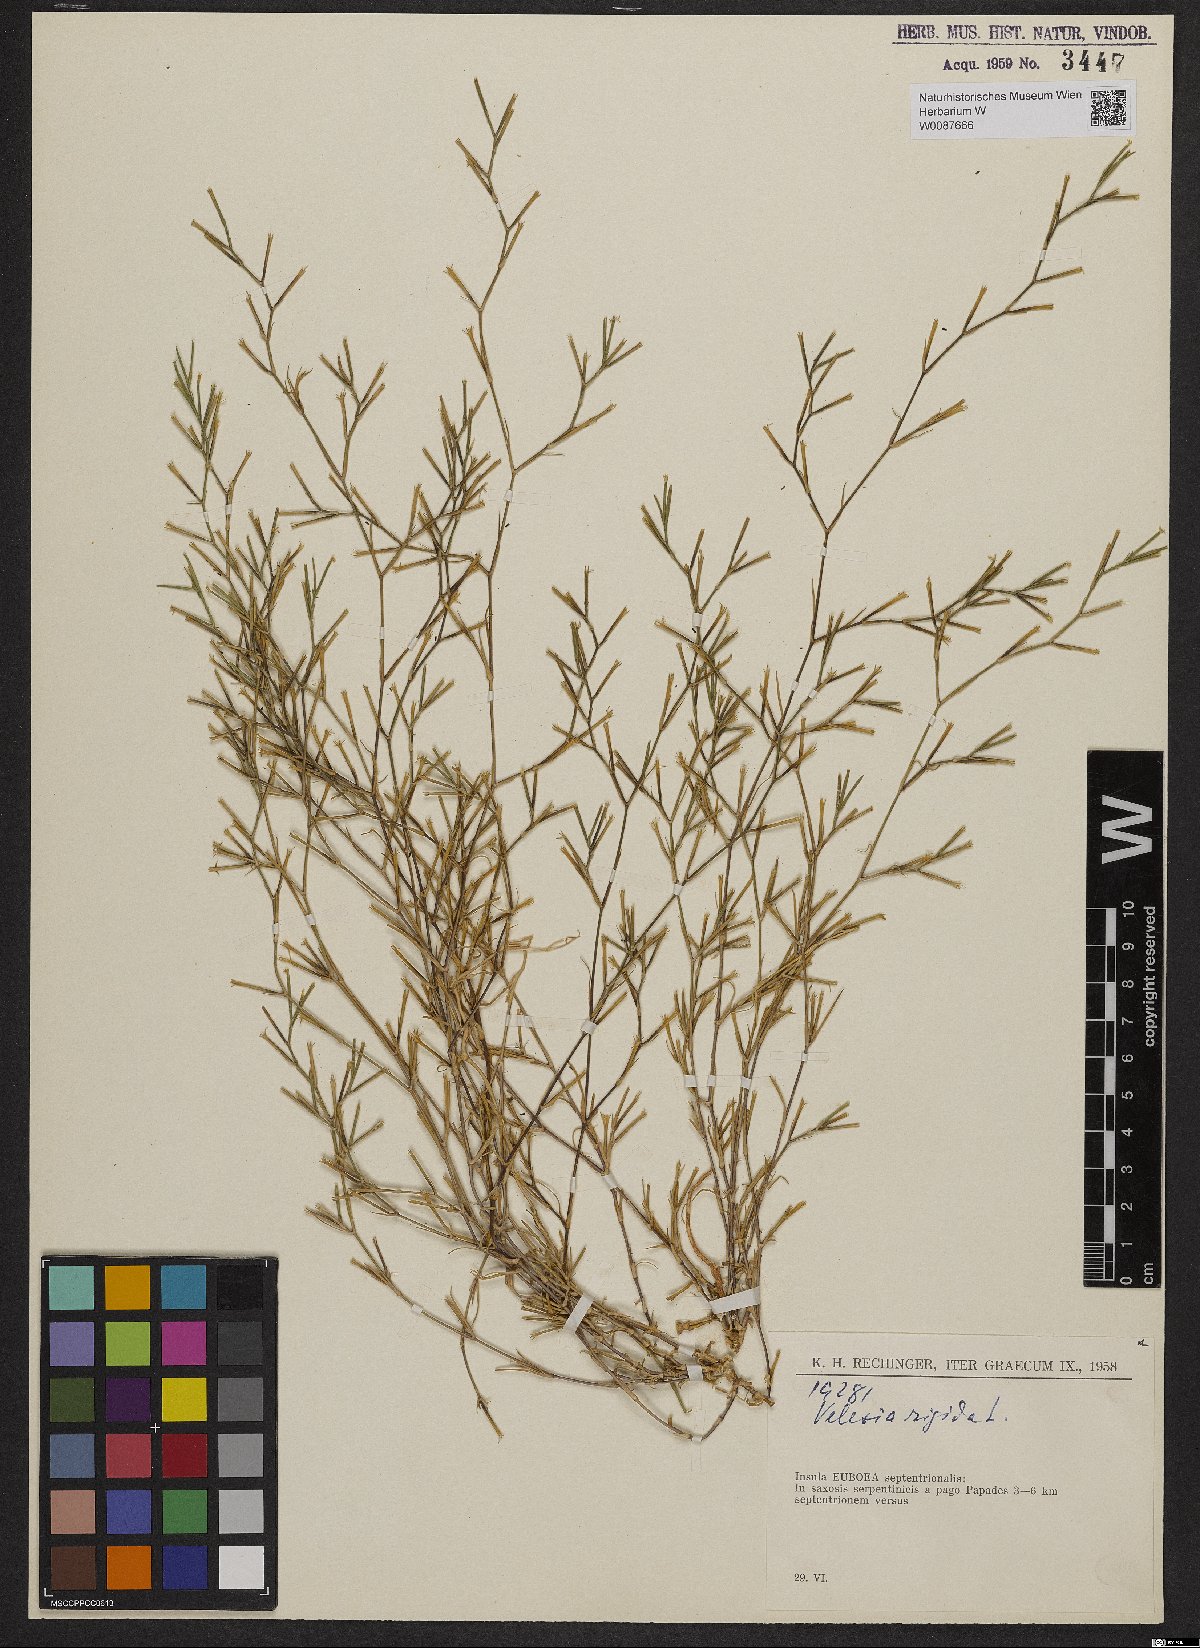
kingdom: Plantae
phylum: Tracheophyta
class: Magnoliopsida
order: Caryophyllales
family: Caryophyllaceae
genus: Dianthus
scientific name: Dianthus nudiflorus
